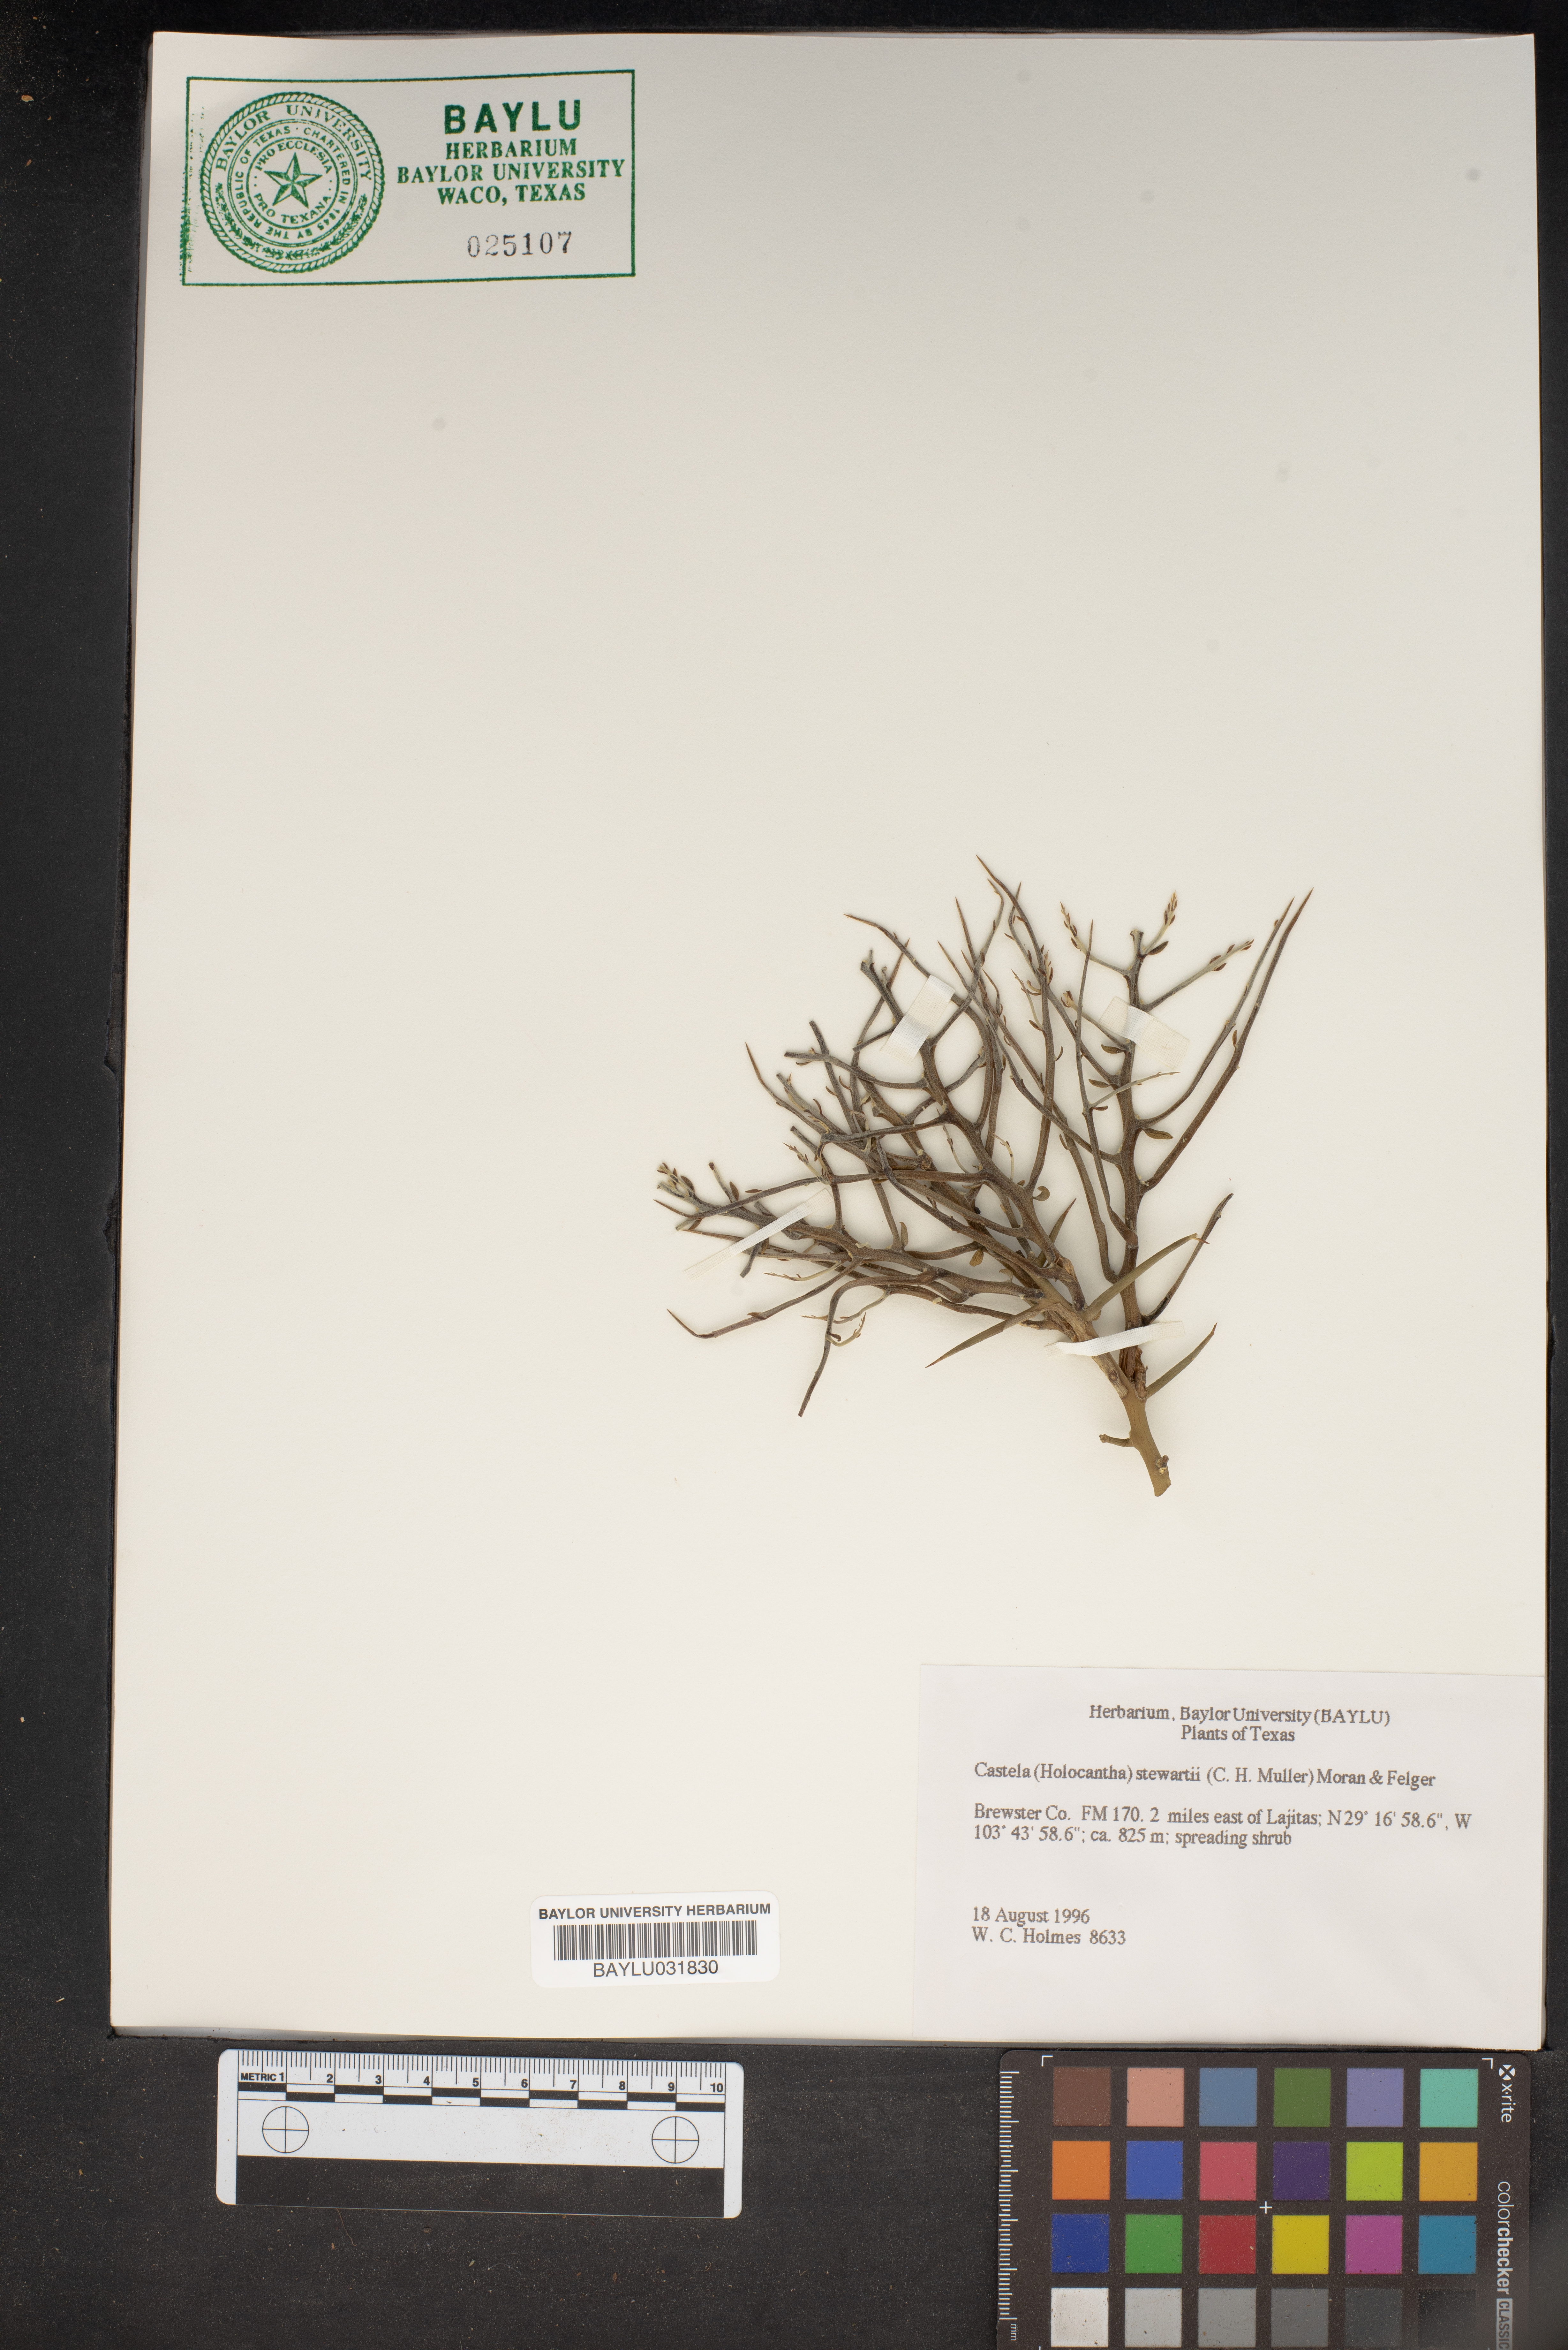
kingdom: Plantae
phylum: Tracheophyta
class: Magnoliopsida
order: Sapindales
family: Simaroubaceae
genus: Holacantha
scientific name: Holacantha stewartii
